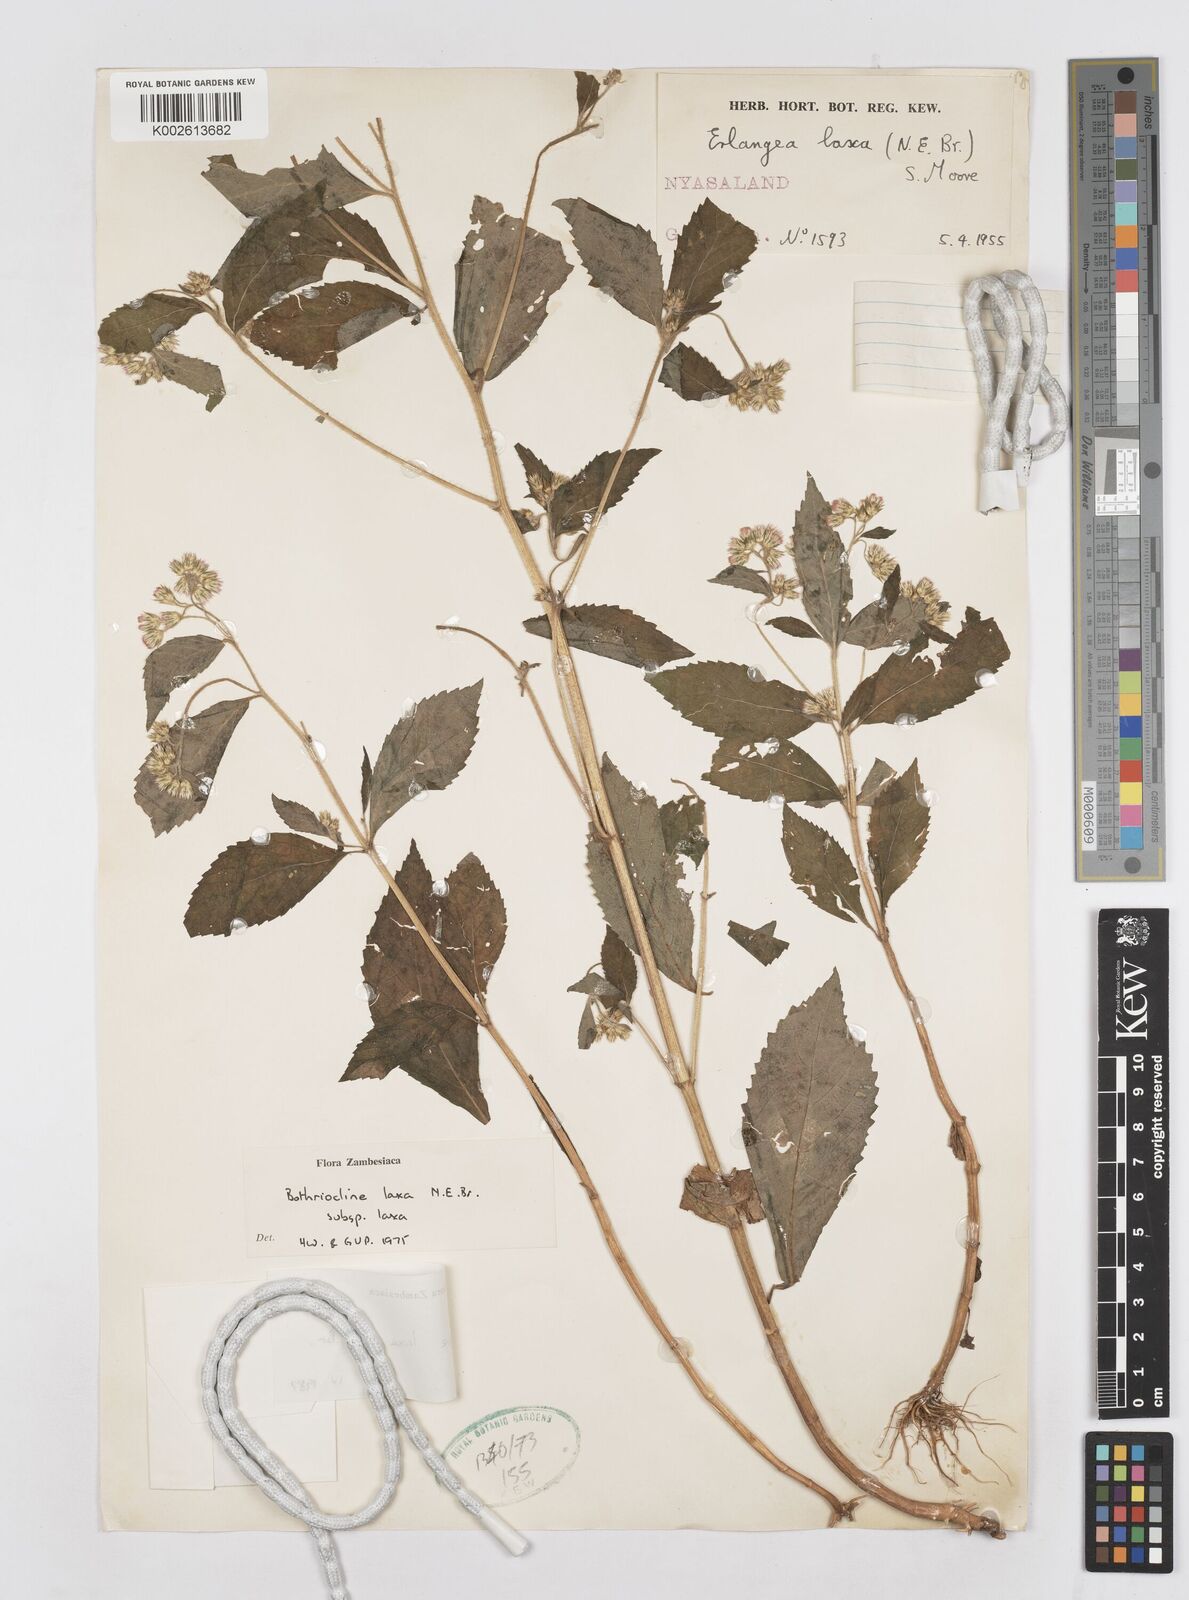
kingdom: Plantae
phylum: Tracheophyta
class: Magnoliopsida
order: Asterales
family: Asteraceae
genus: Bothriocline
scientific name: Bothriocline laxa
